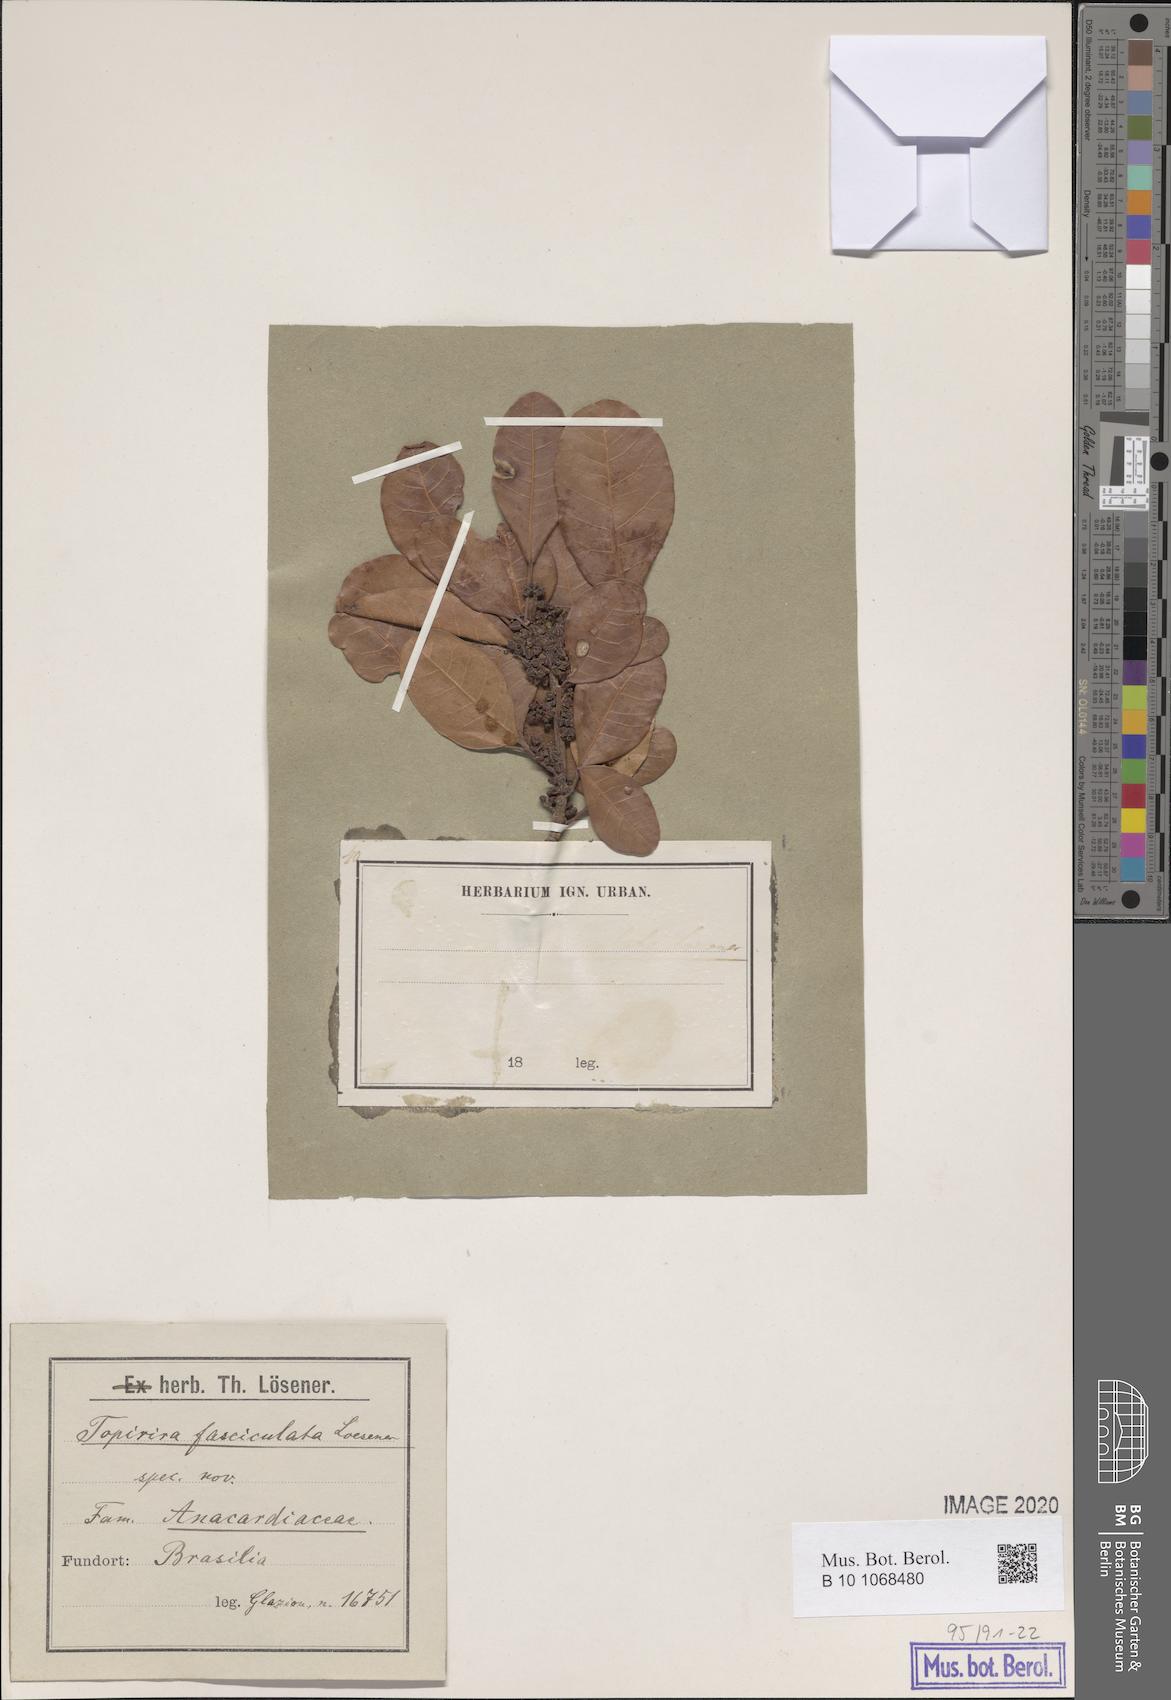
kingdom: Plantae
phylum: Tracheophyta
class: Magnoliopsida
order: Sapindales
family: Anacardiaceae
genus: Tapirira
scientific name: Tapirira fasciculata
